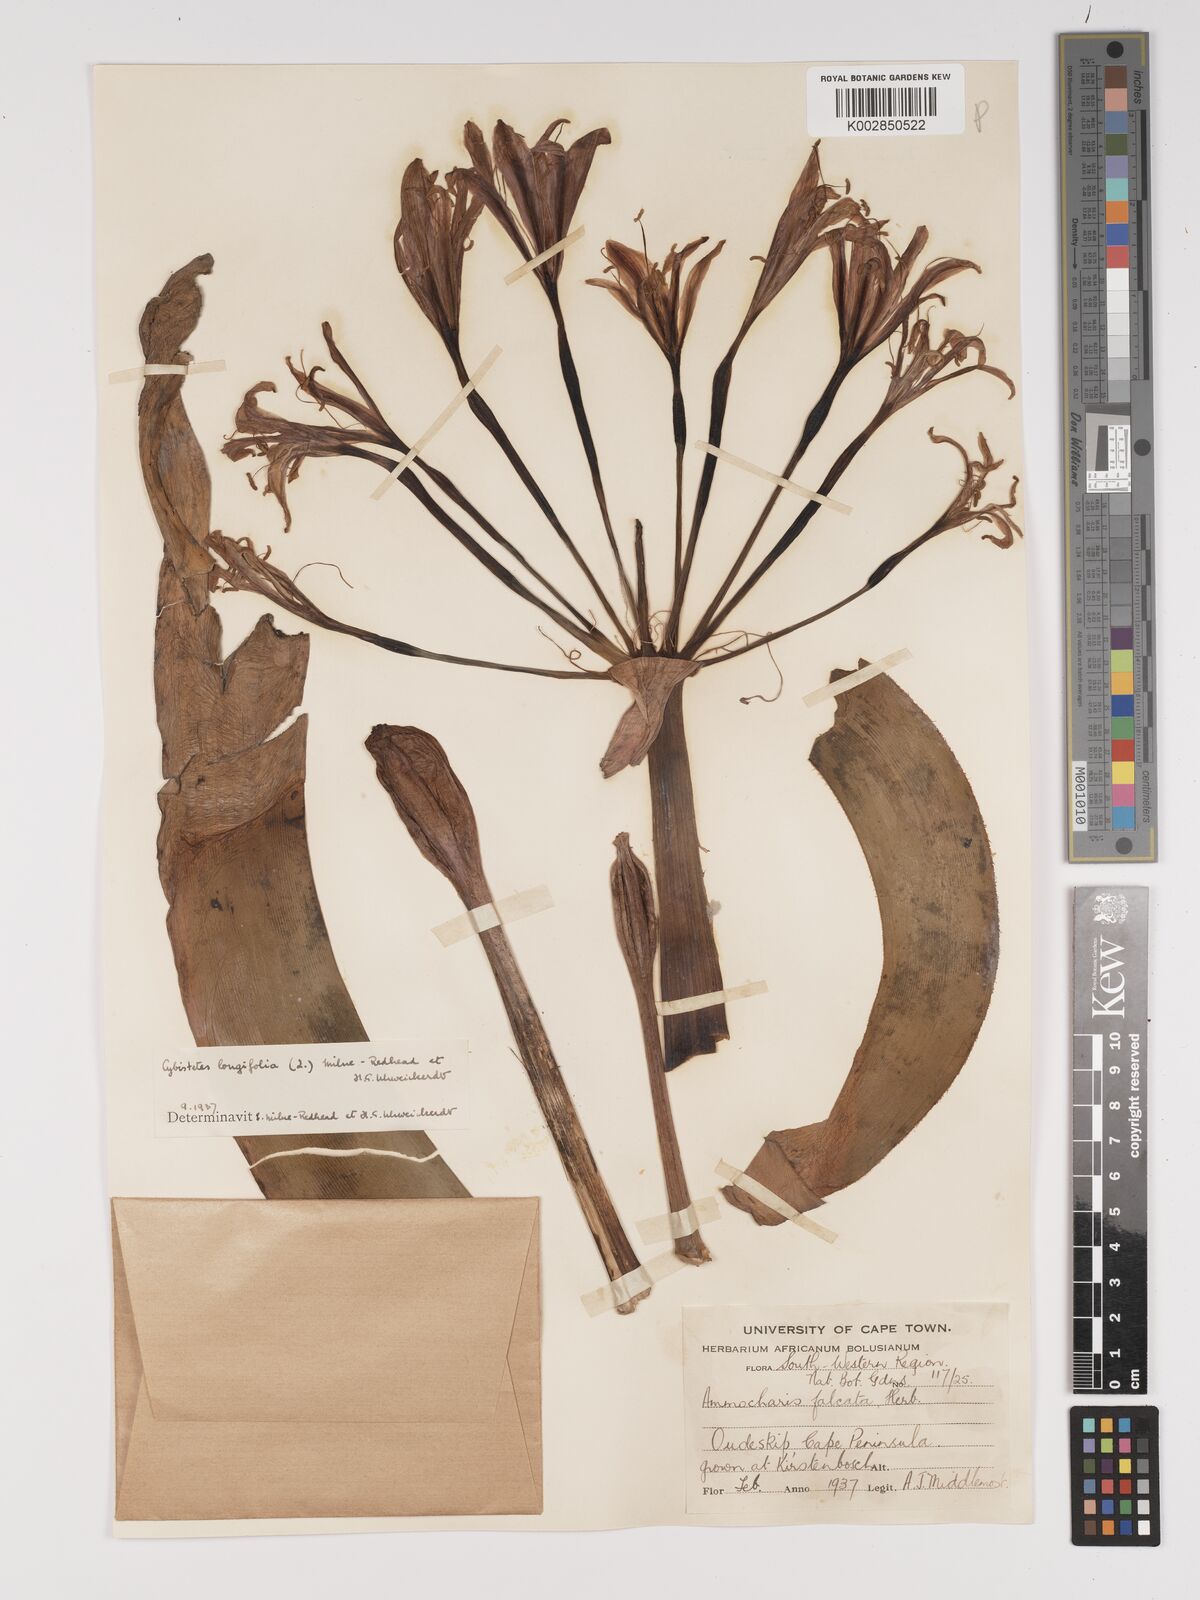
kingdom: Plantae
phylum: Tracheophyta
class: Liliopsida
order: Asparagales
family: Amaryllidaceae
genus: Ammocharis
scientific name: Ammocharis longifolia
